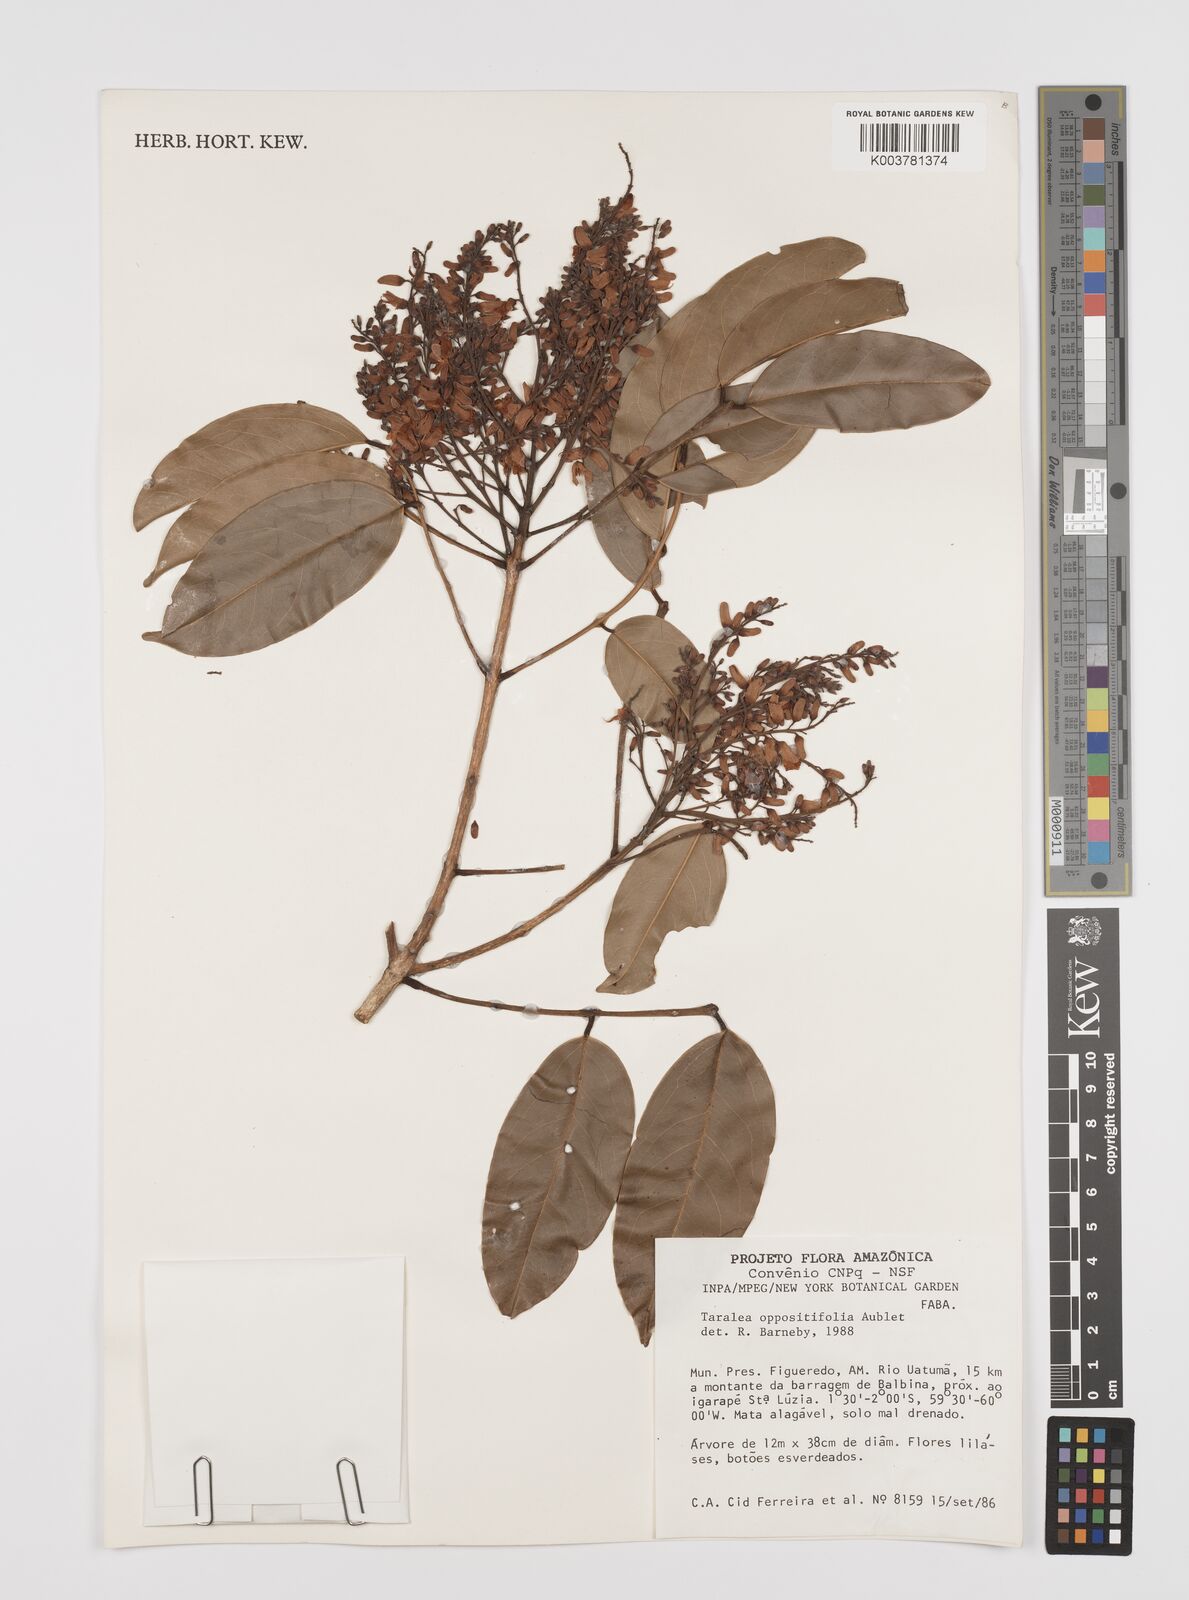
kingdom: Plantae
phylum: Tracheophyta
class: Magnoliopsida
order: Fabales
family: Fabaceae
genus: Taralea
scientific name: Taralea oppositifolia
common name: Tonka
